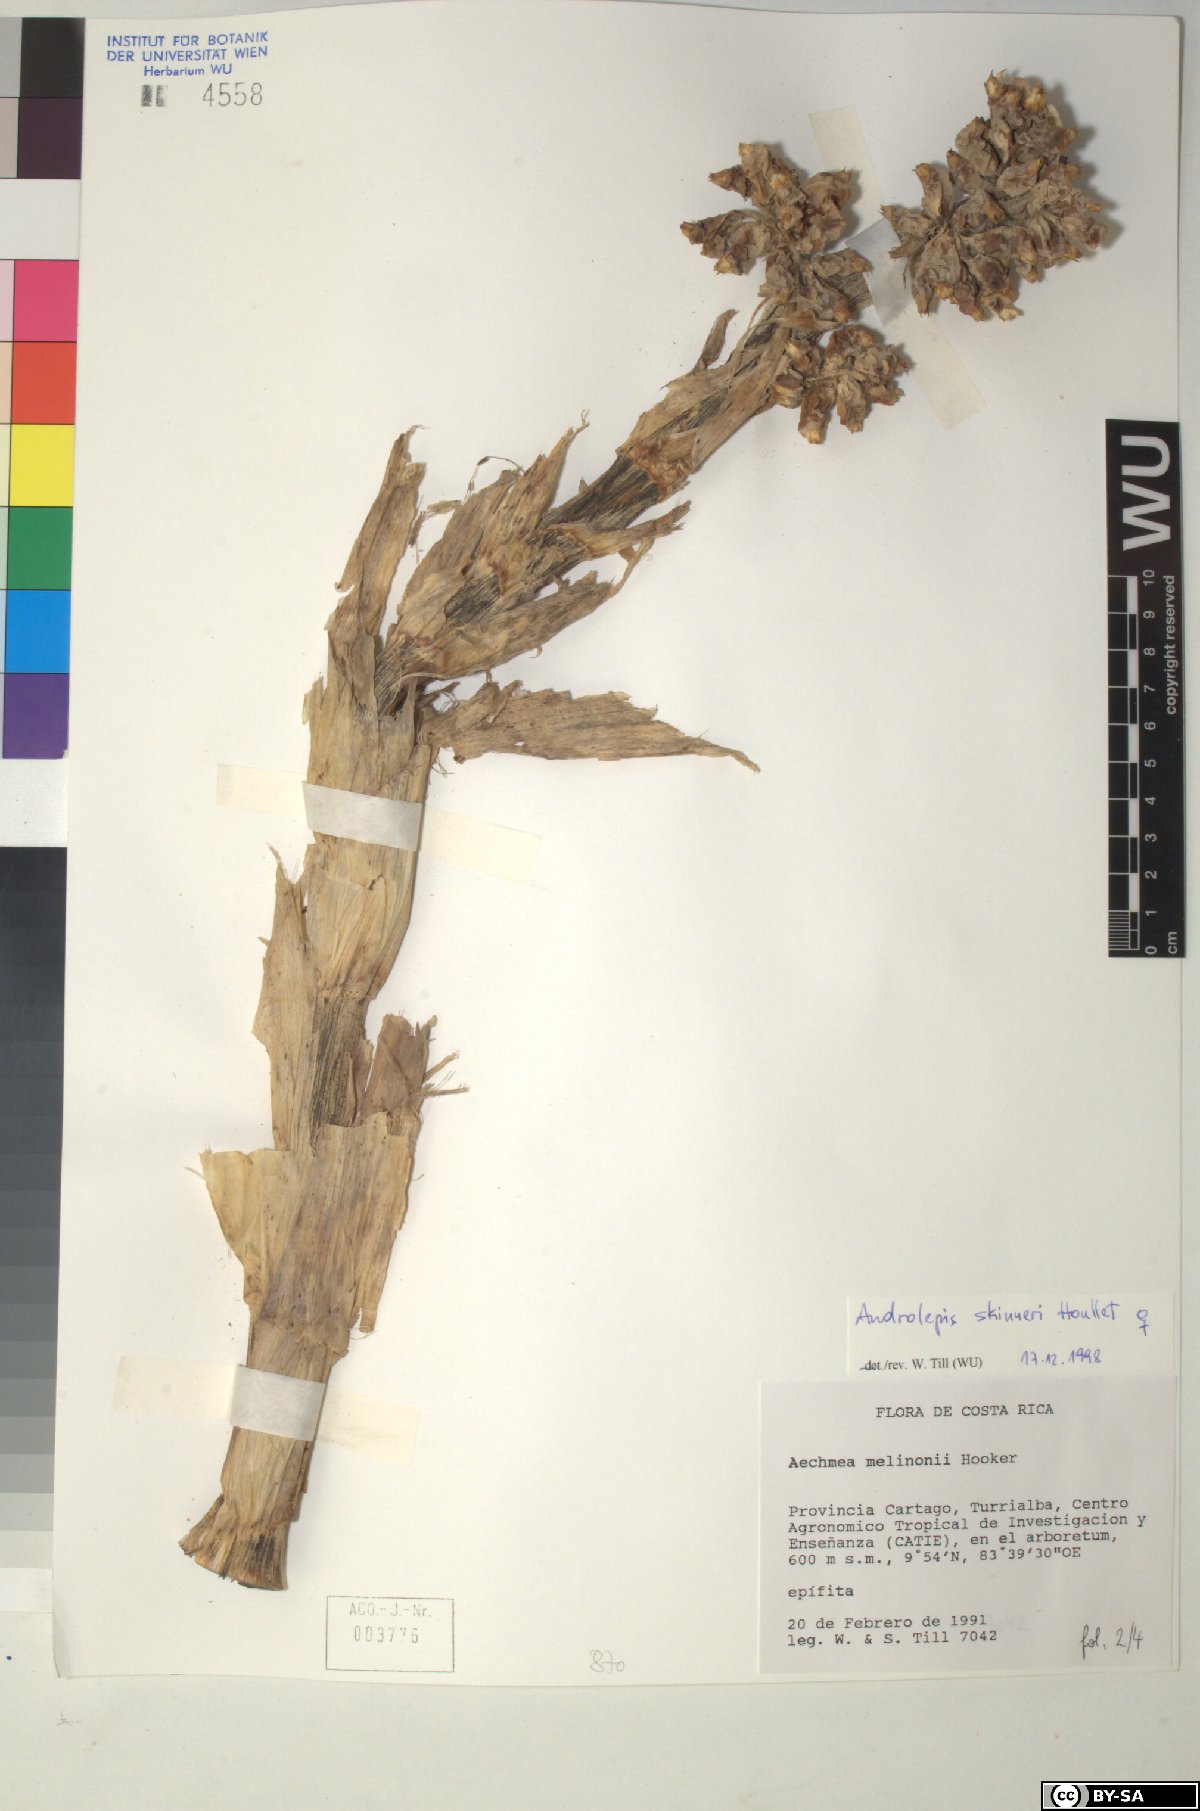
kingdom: Plantae
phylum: Tracheophyta
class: Liliopsida
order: Poales
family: Bromeliaceae
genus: Androlepis
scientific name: Androlepis skinneri
